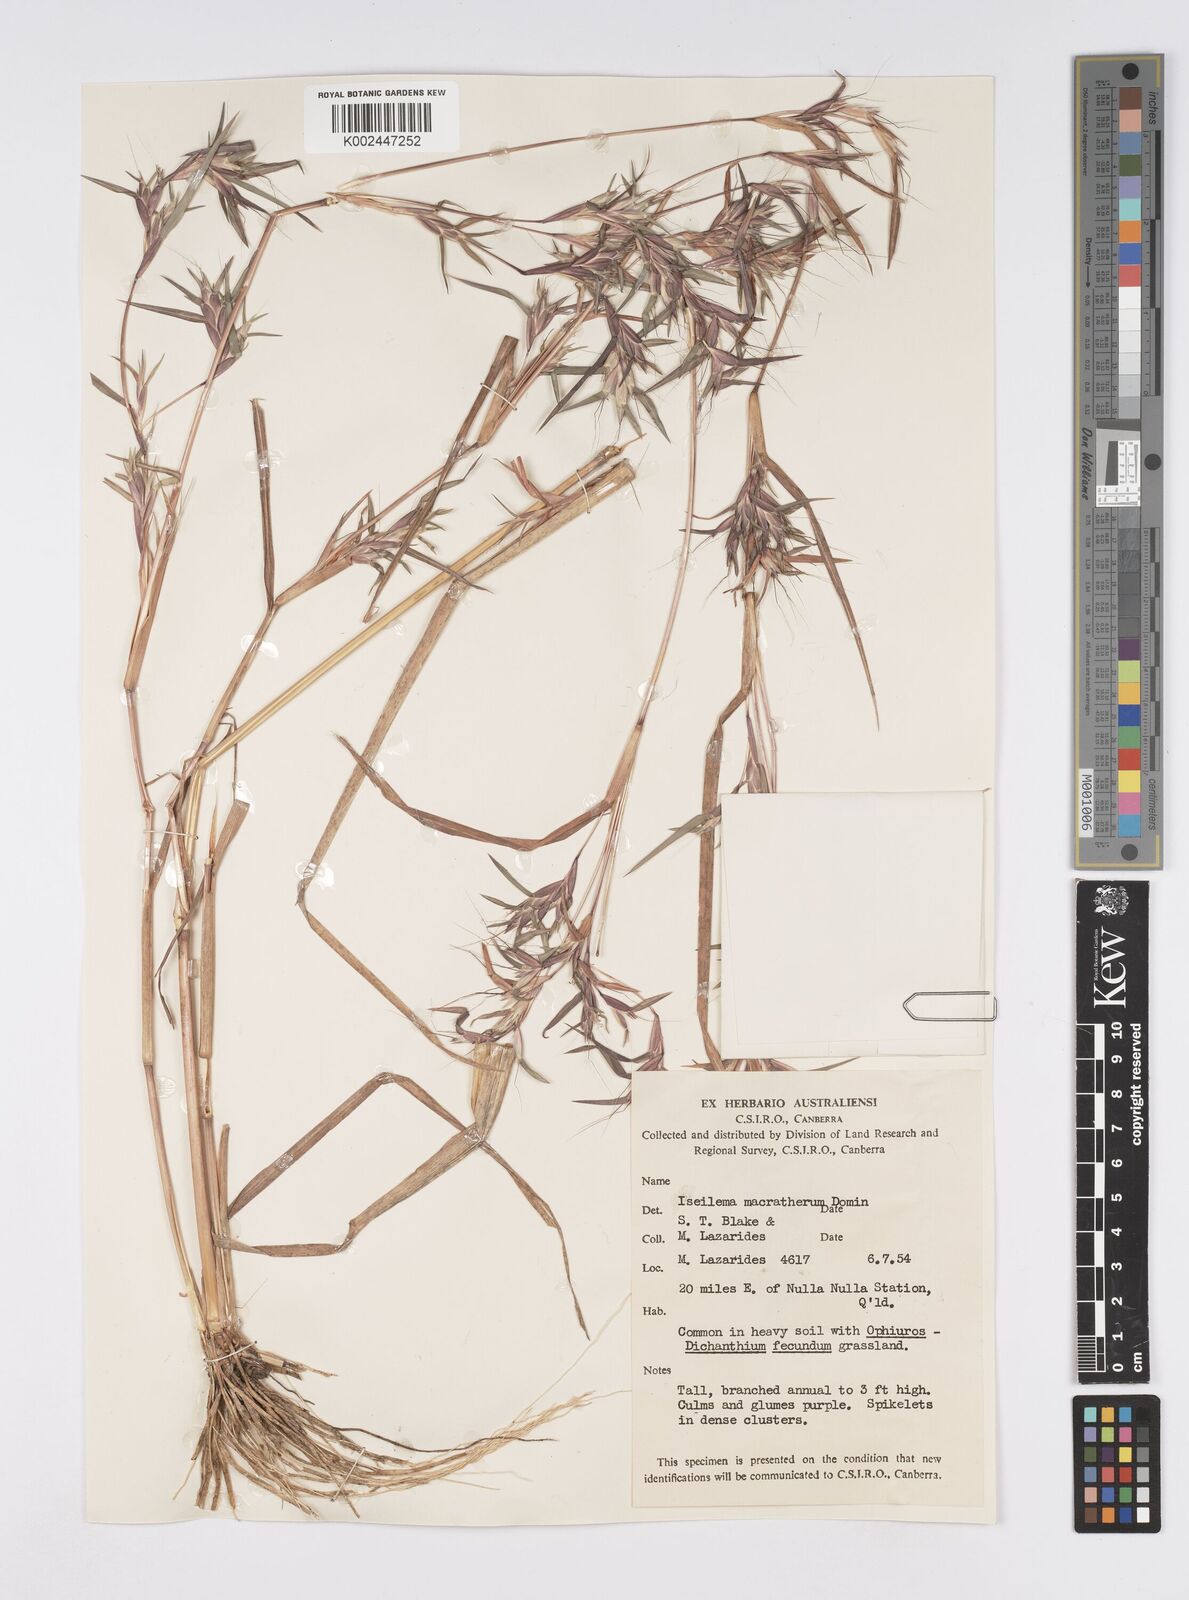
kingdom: Plantae
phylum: Tracheophyta
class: Liliopsida
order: Poales
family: Poaceae
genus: Iseilema
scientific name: Iseilema macratherum
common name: Bull flinders grass
